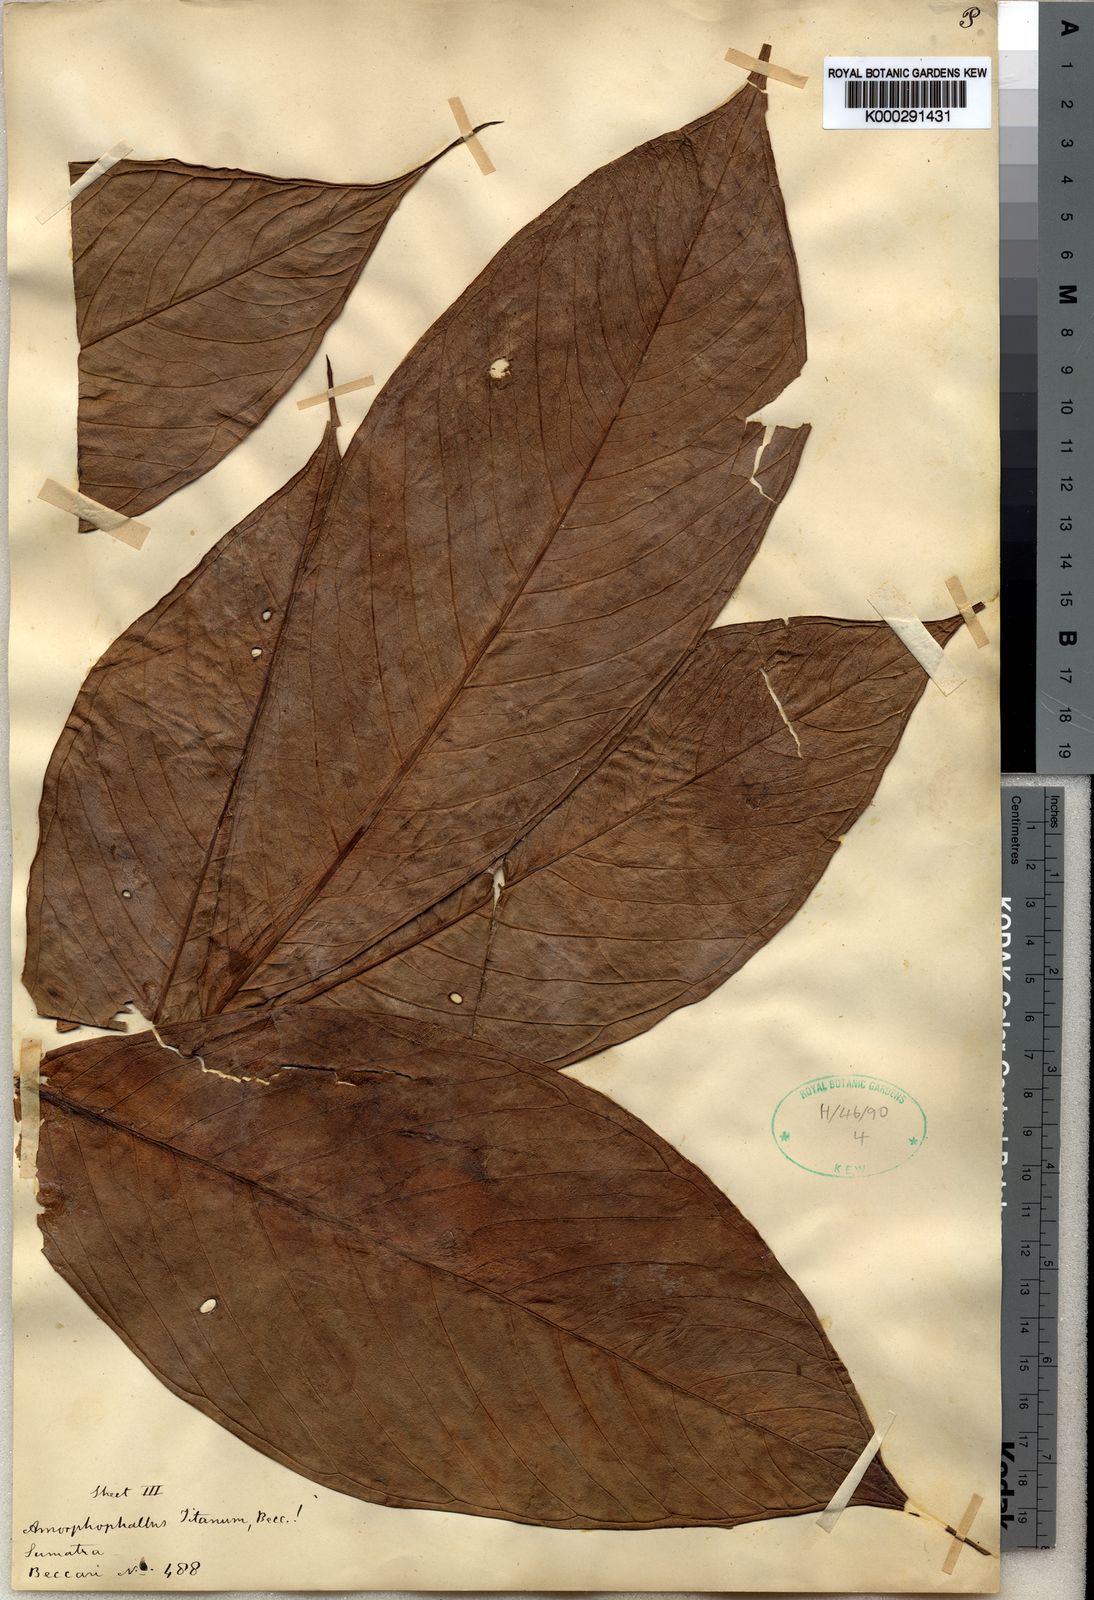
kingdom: Plantae
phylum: Tracheophyta
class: Liliopsida
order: Alismatales
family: Araceae
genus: Amorphophallus
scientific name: Amorphophallus titanum
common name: Titan arum
